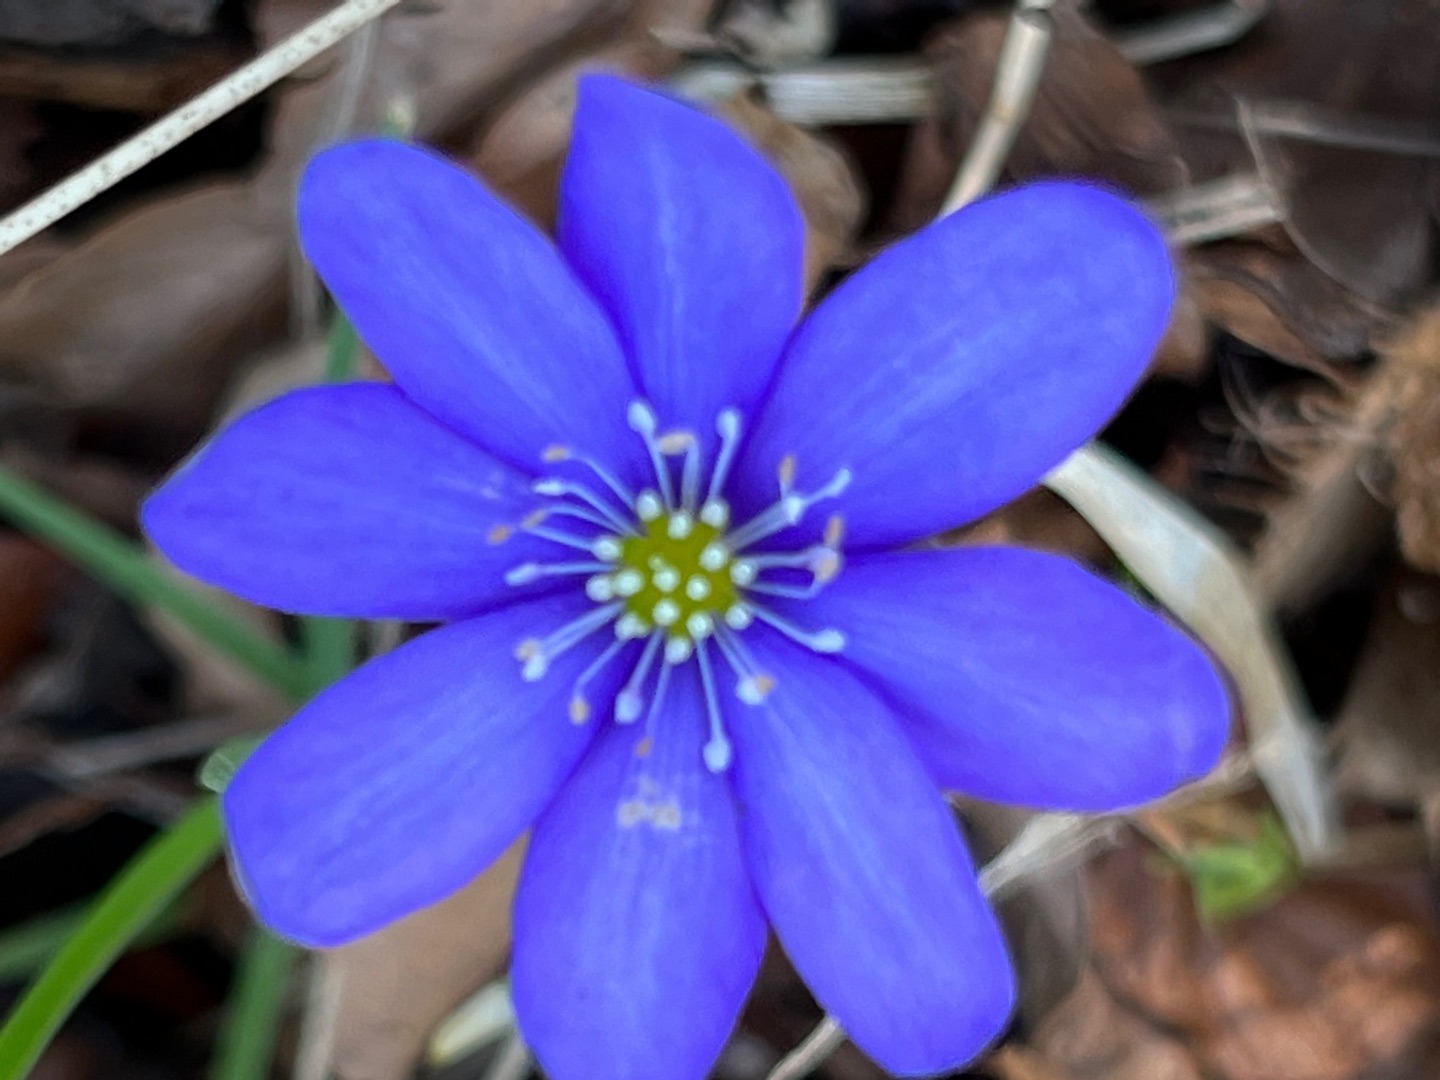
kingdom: Plantae
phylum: Tracheophyta
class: Magnoliopsida
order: Ranunculales
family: Ranunculaceae
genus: Hepatica
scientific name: Hepatica nobilis
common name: Blå anemone
